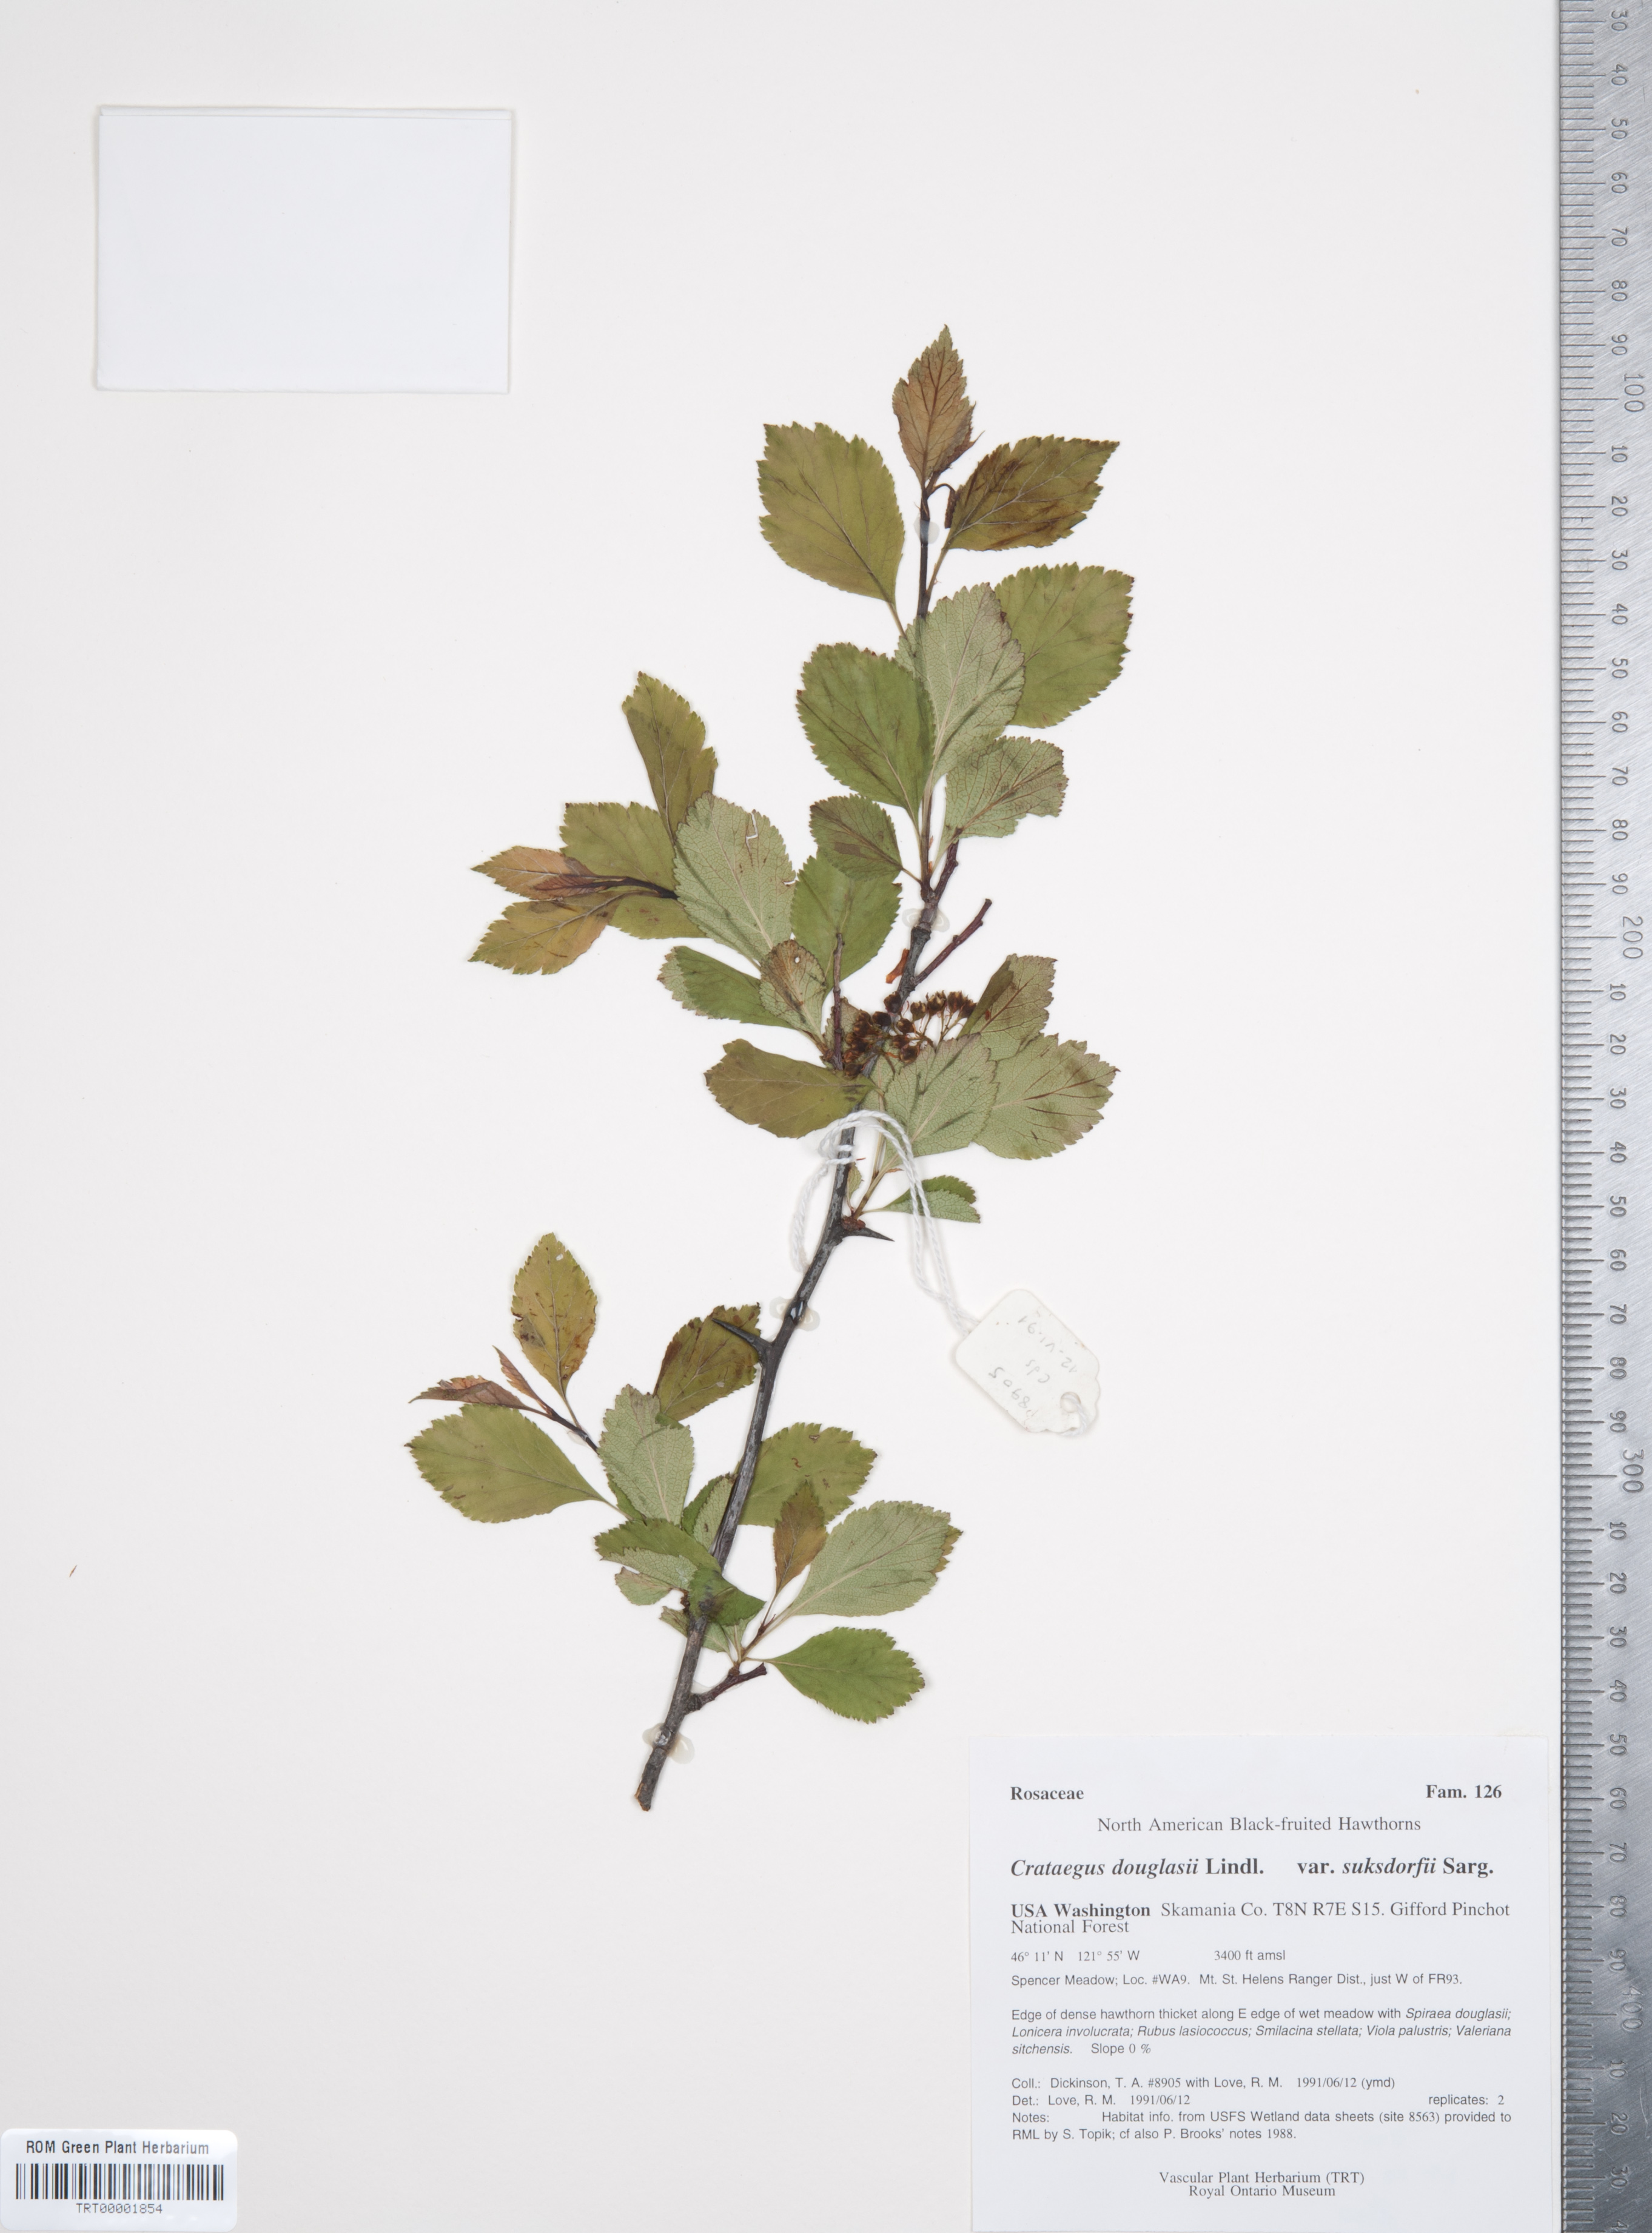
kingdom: Plantae
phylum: Tracheophyta
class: Magnoliopsida
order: Rosales
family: Rosaceae
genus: Crataegus
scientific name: Crataegus gaylussacia
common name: Huckleberry hawthorn
